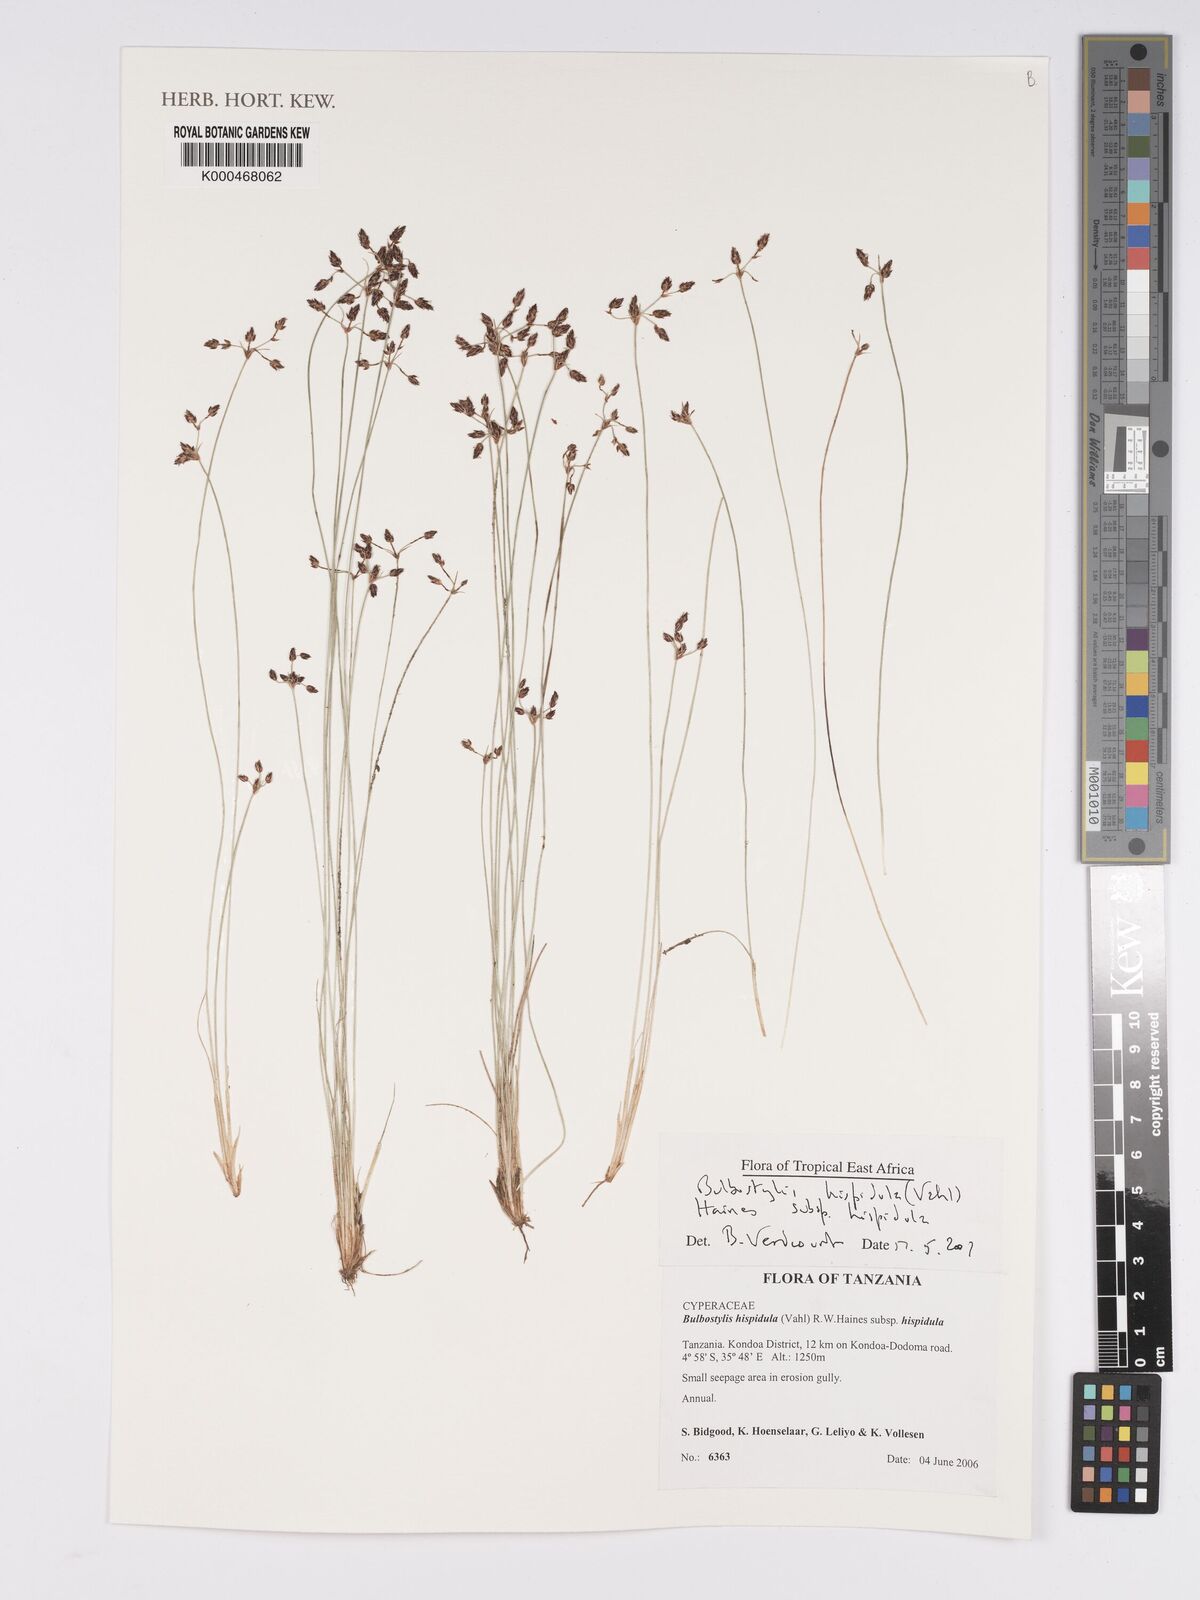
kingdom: Plantae
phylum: Tracheophyta
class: Liliopsida
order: Poales
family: Cyperaceae
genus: Bulbostylis
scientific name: Bulbostylis hispidula
